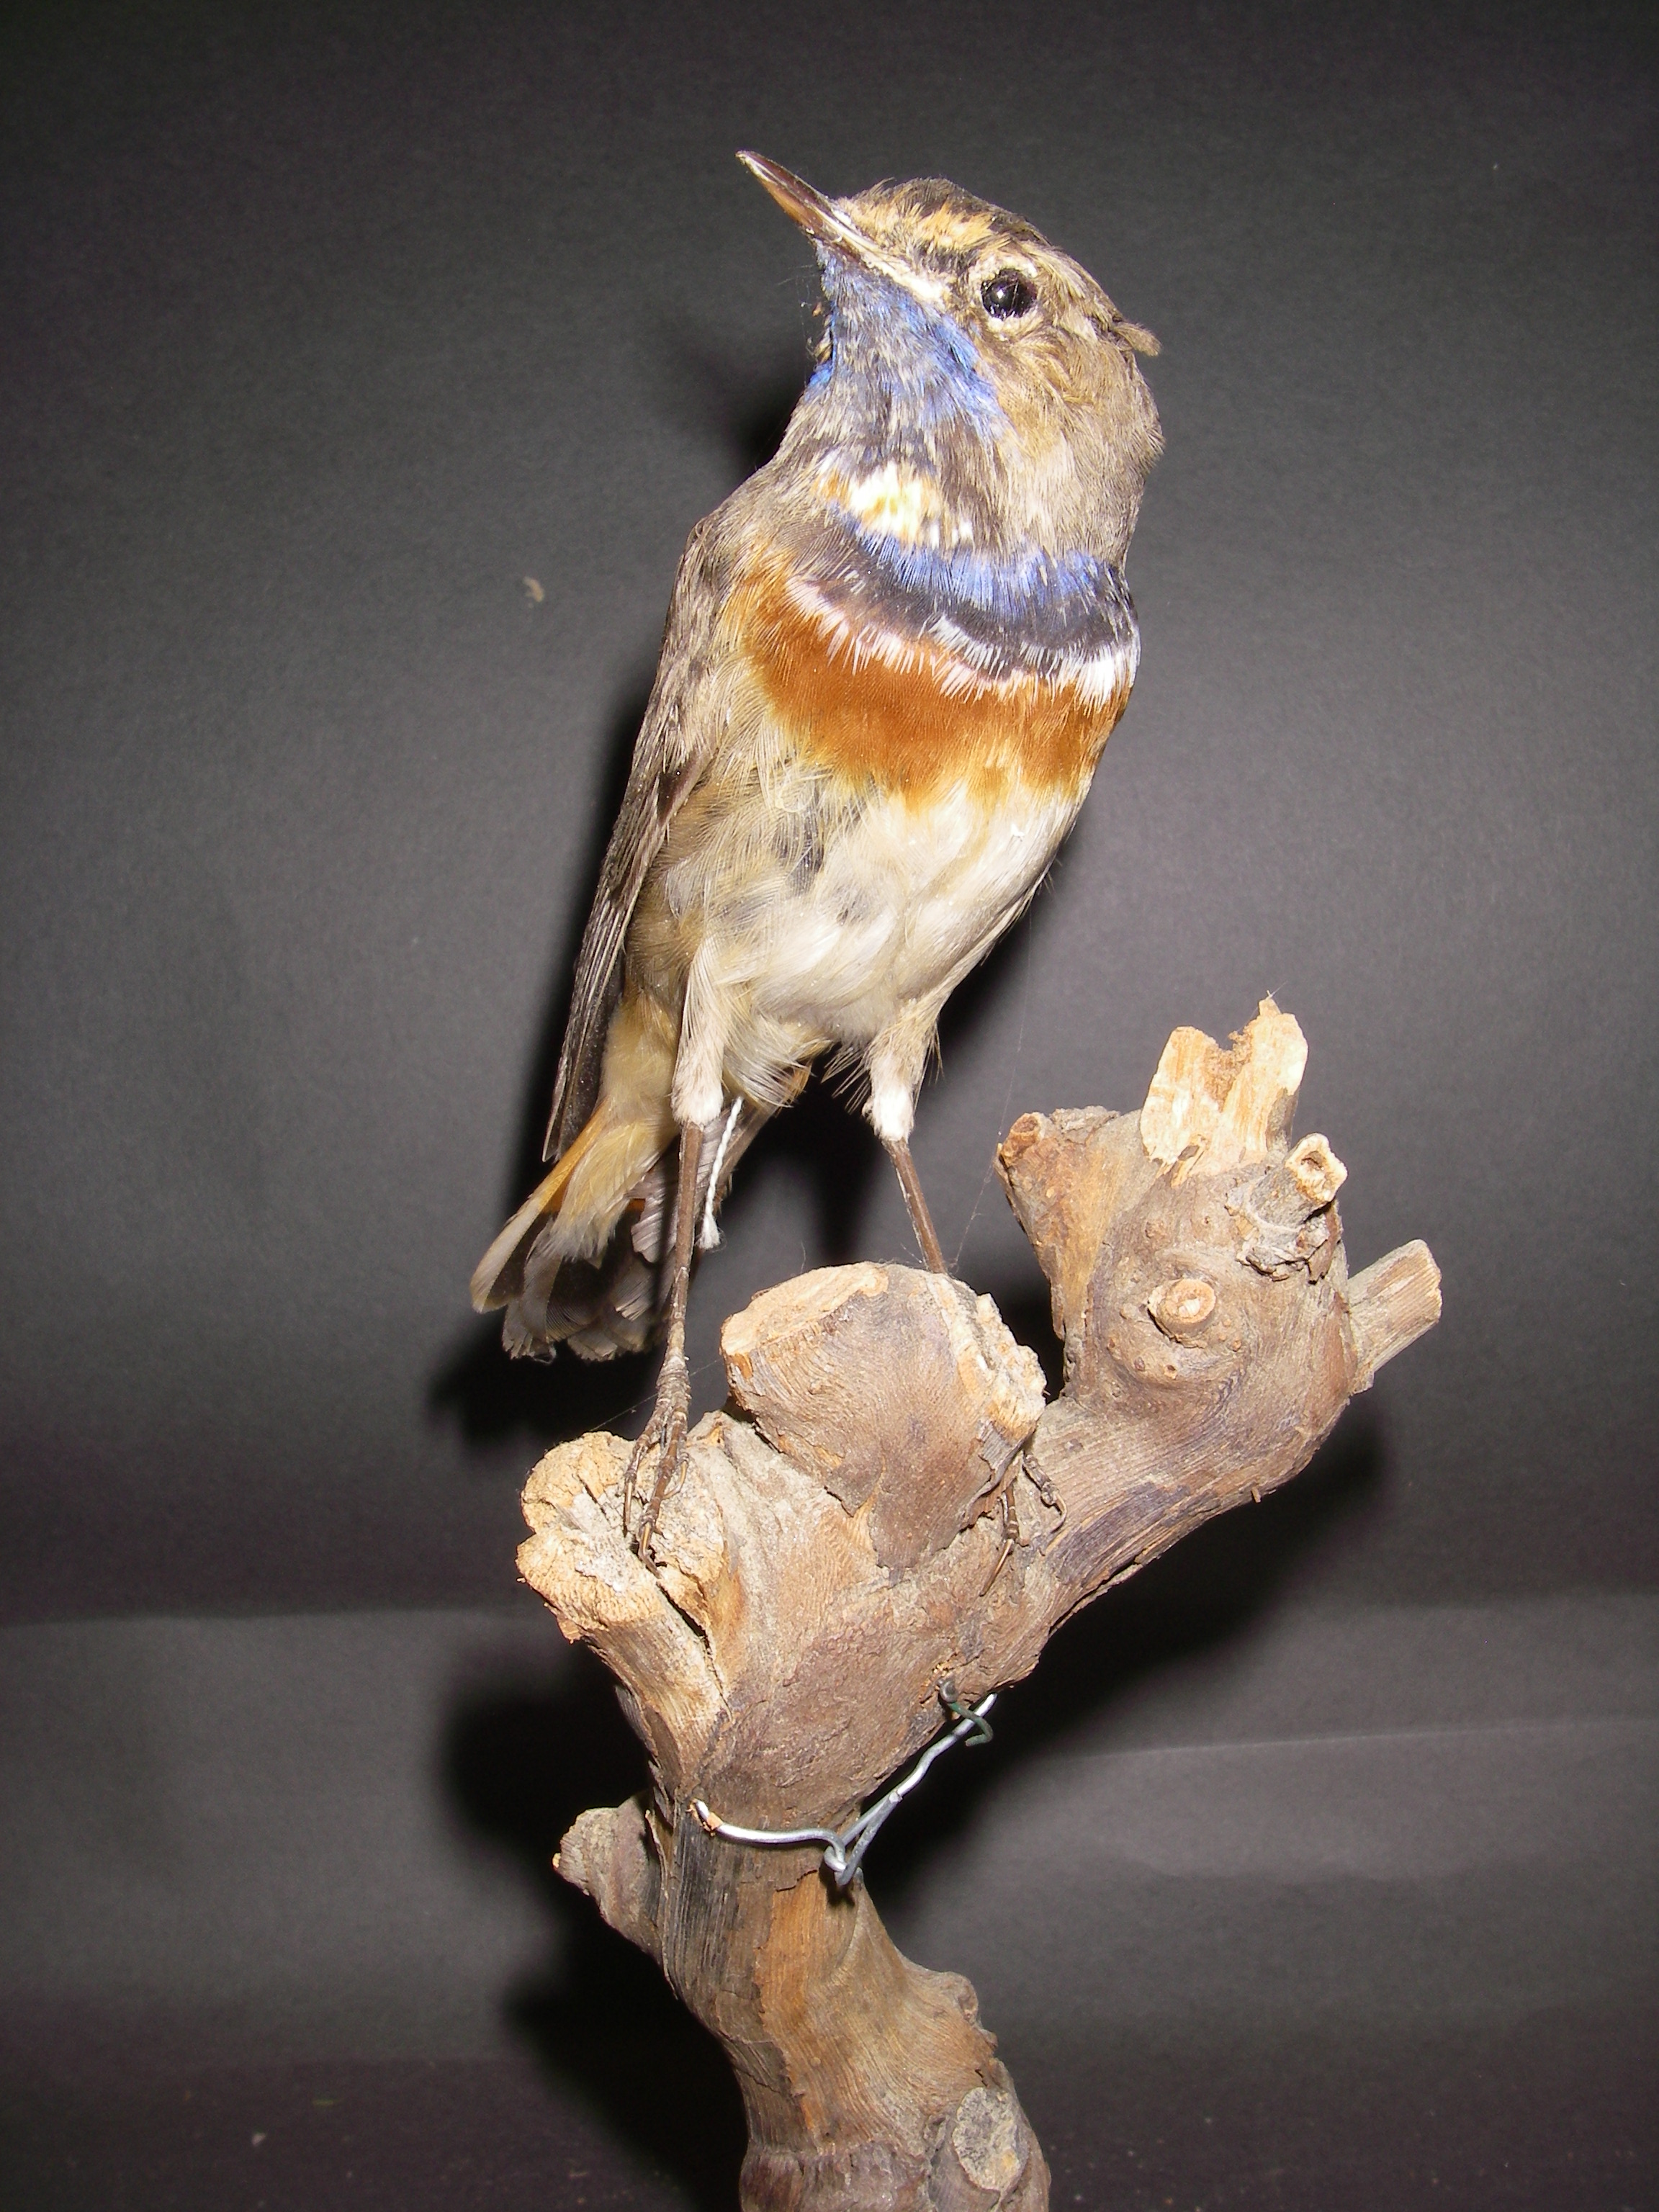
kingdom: Animalia
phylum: Chordata
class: Aves
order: Passeriformes
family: Muscicapidae
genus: Luscinia
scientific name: Luscinia svecica
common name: Bluethroat
